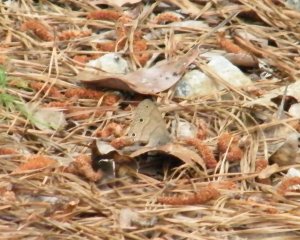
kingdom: Animalia
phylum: Arthropoda
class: Insecta
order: Lepidoptera
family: Nymphalidae
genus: Hermeuptychia
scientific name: Hermeuptychia hermes
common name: Carolina Satyr
